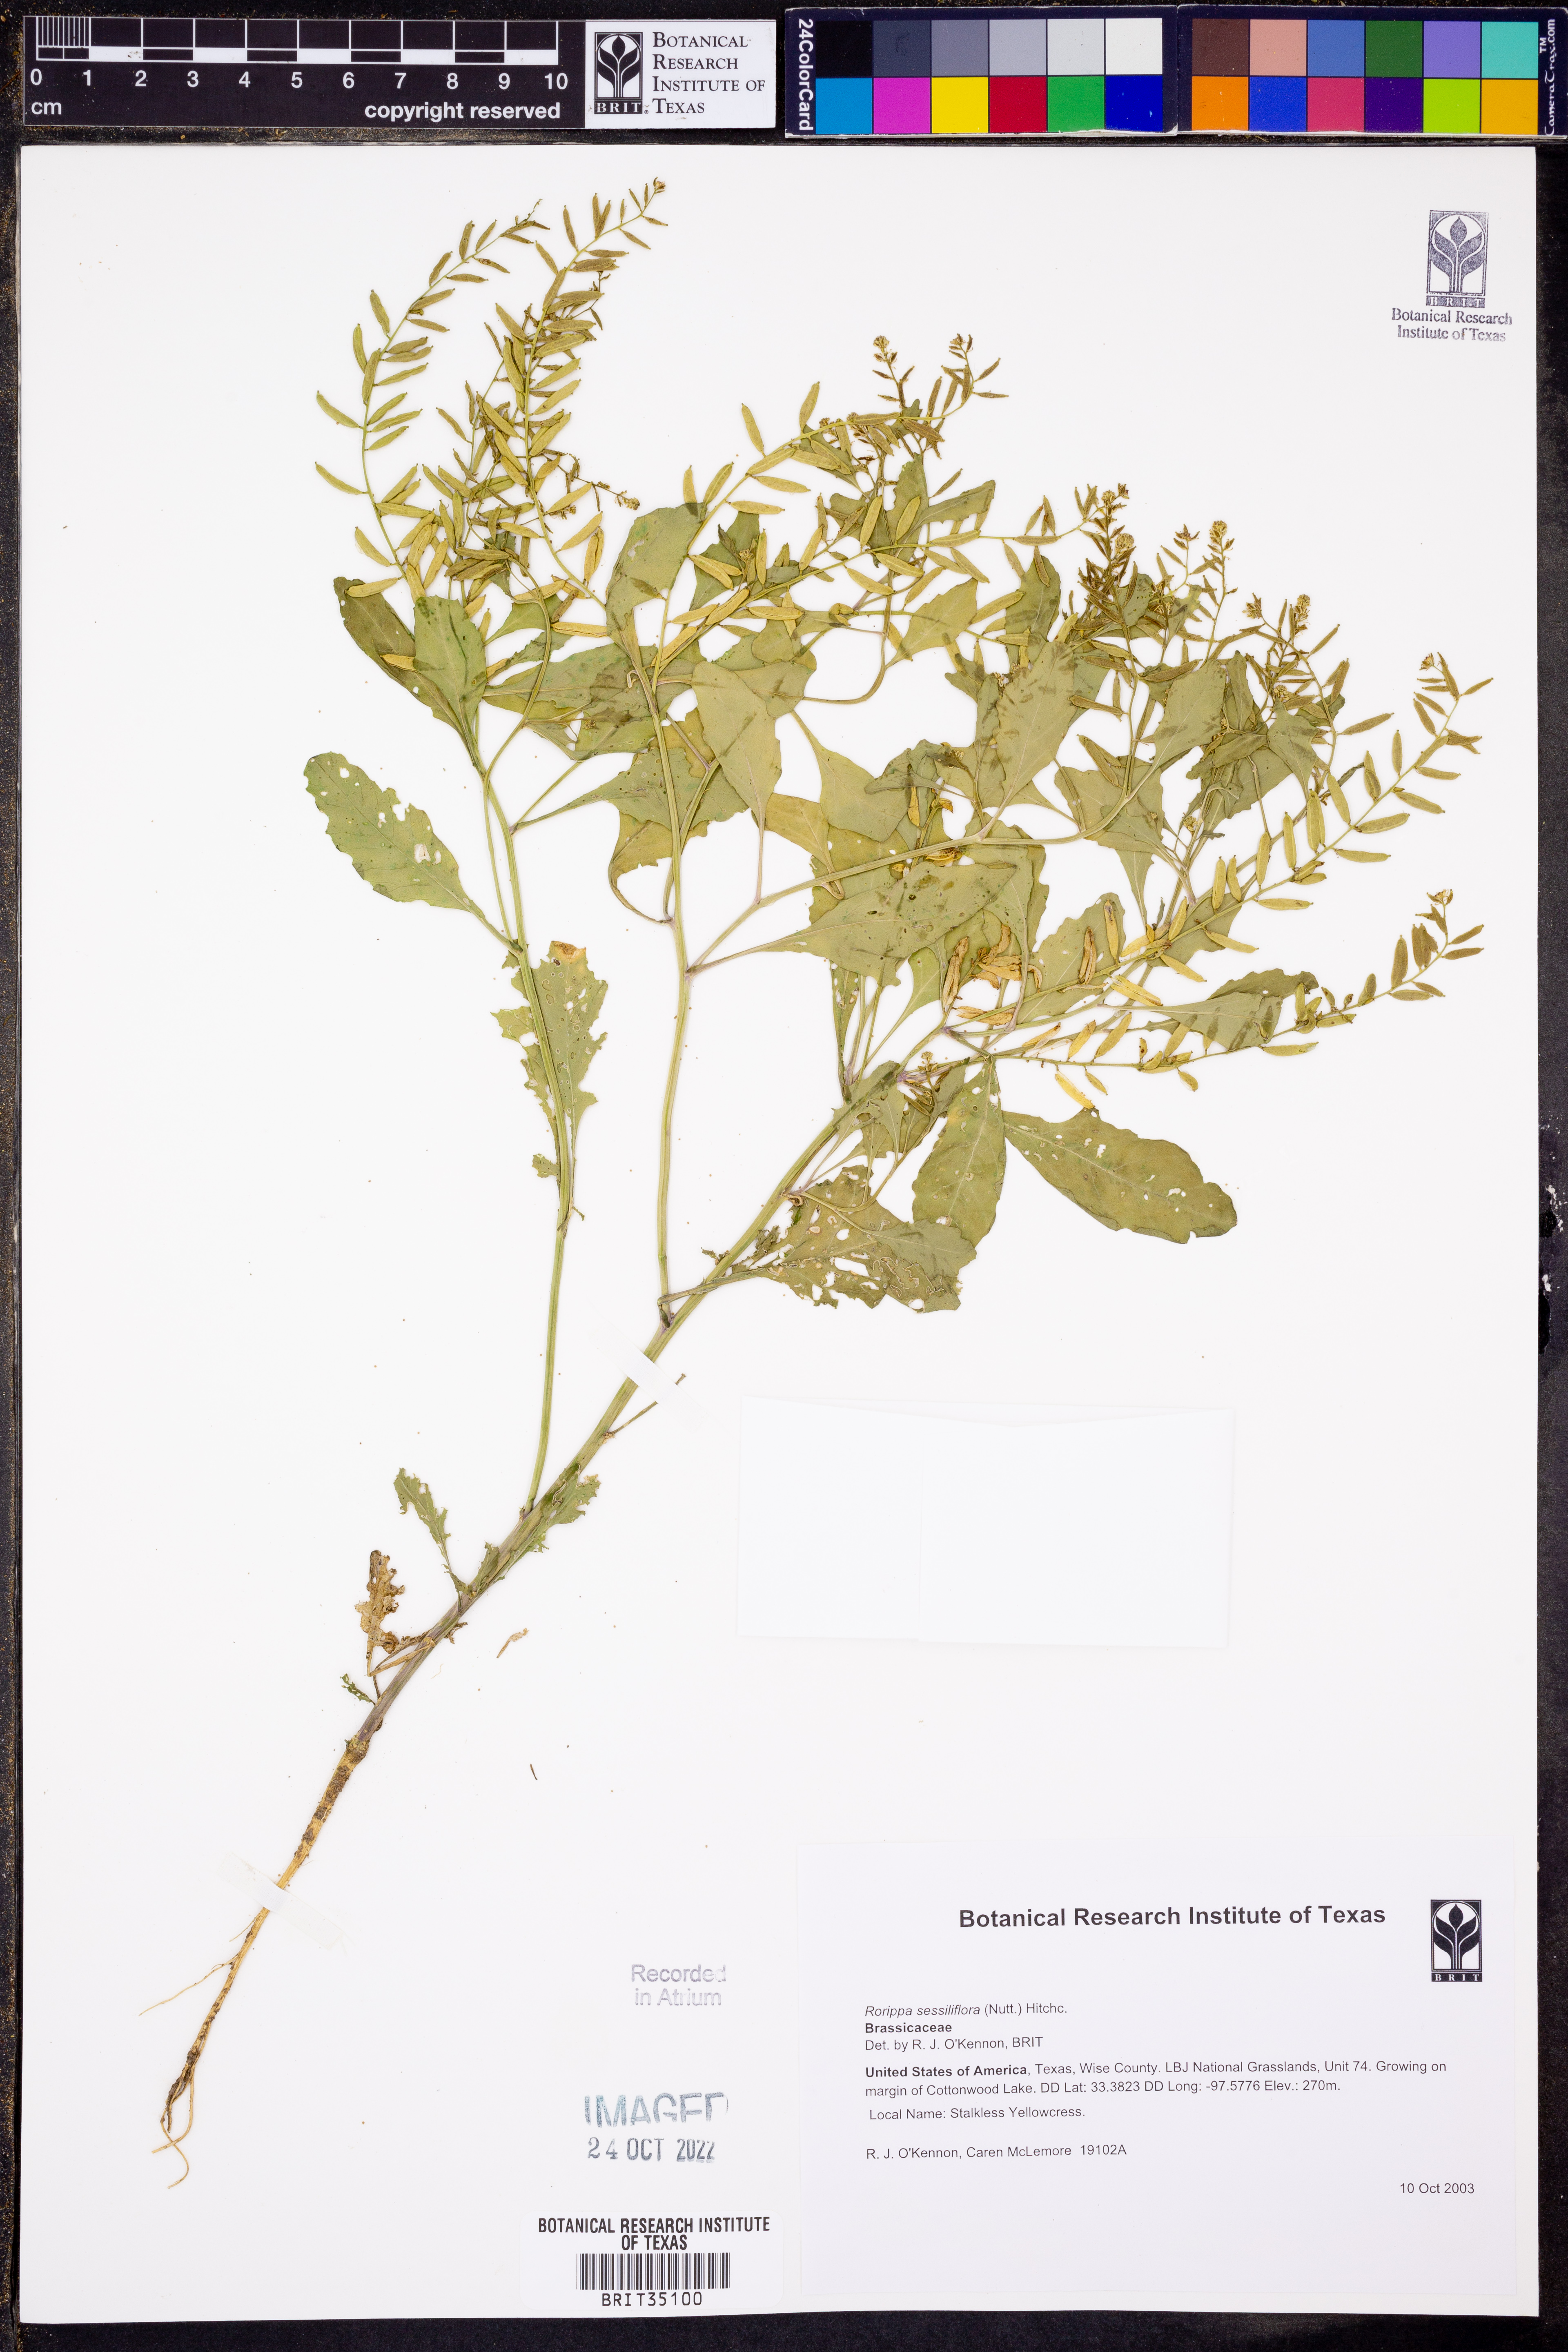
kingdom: Plantae
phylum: Tracheophyta
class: Magnoliopsida
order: Brassicales
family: Brassicaceae
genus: Rorippa
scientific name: Rorippa sessiliflora
